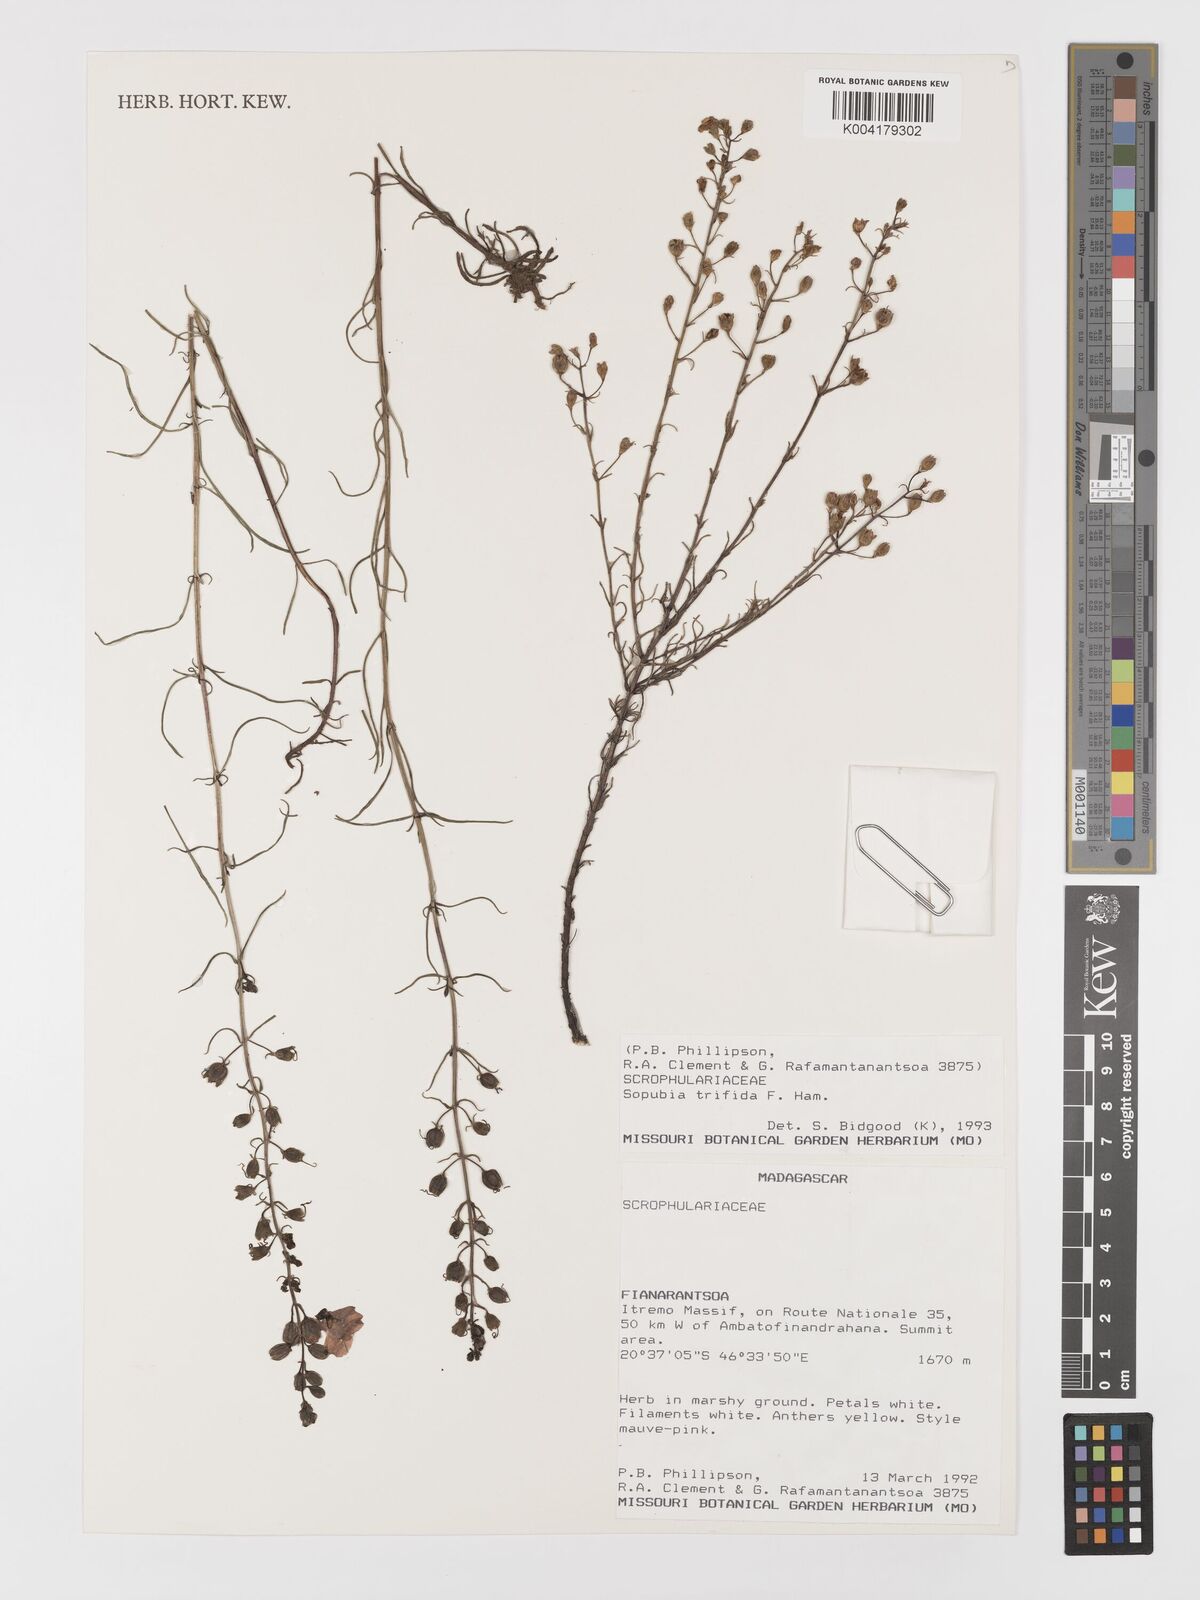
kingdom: Plantae
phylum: Tracheophyta
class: Magnoliopsida
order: Lamiales
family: Orobanchaceae
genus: Sopubia
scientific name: Sopubia trifida
